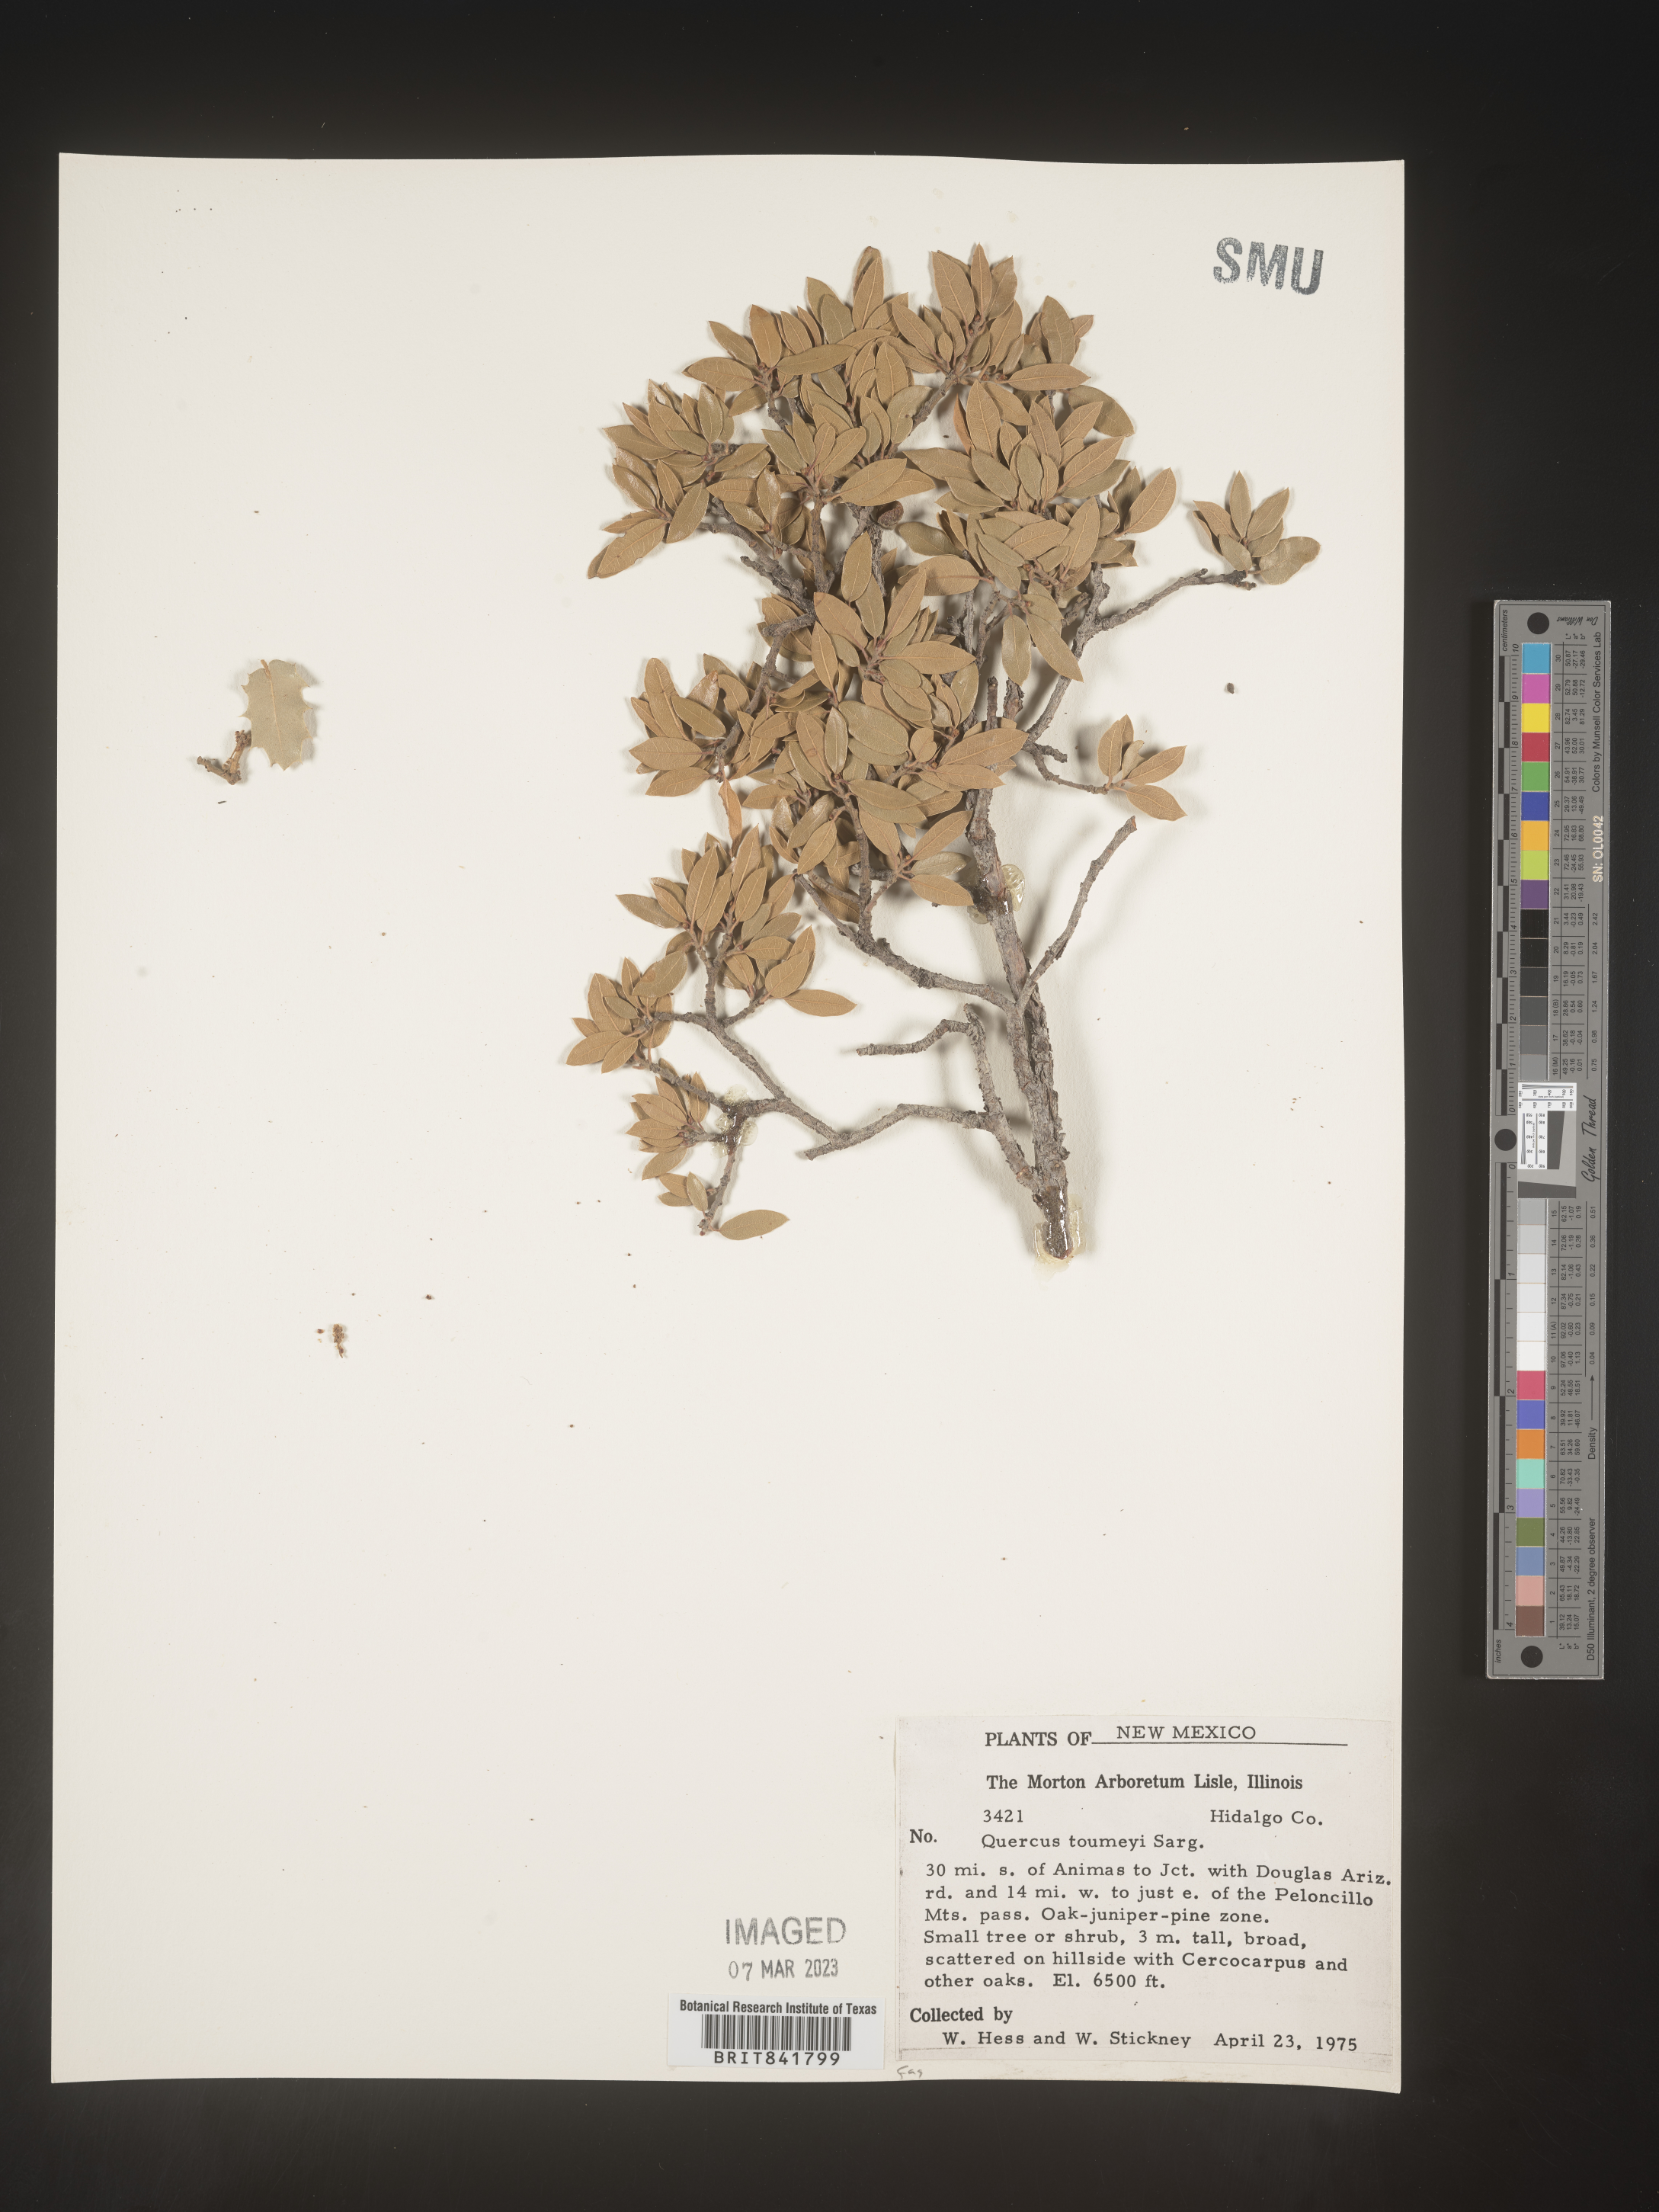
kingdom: Plantae
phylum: Tracheophyta
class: Magnoliopsida
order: Fagales
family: Fagaceae
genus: Quercus
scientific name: Quercus
